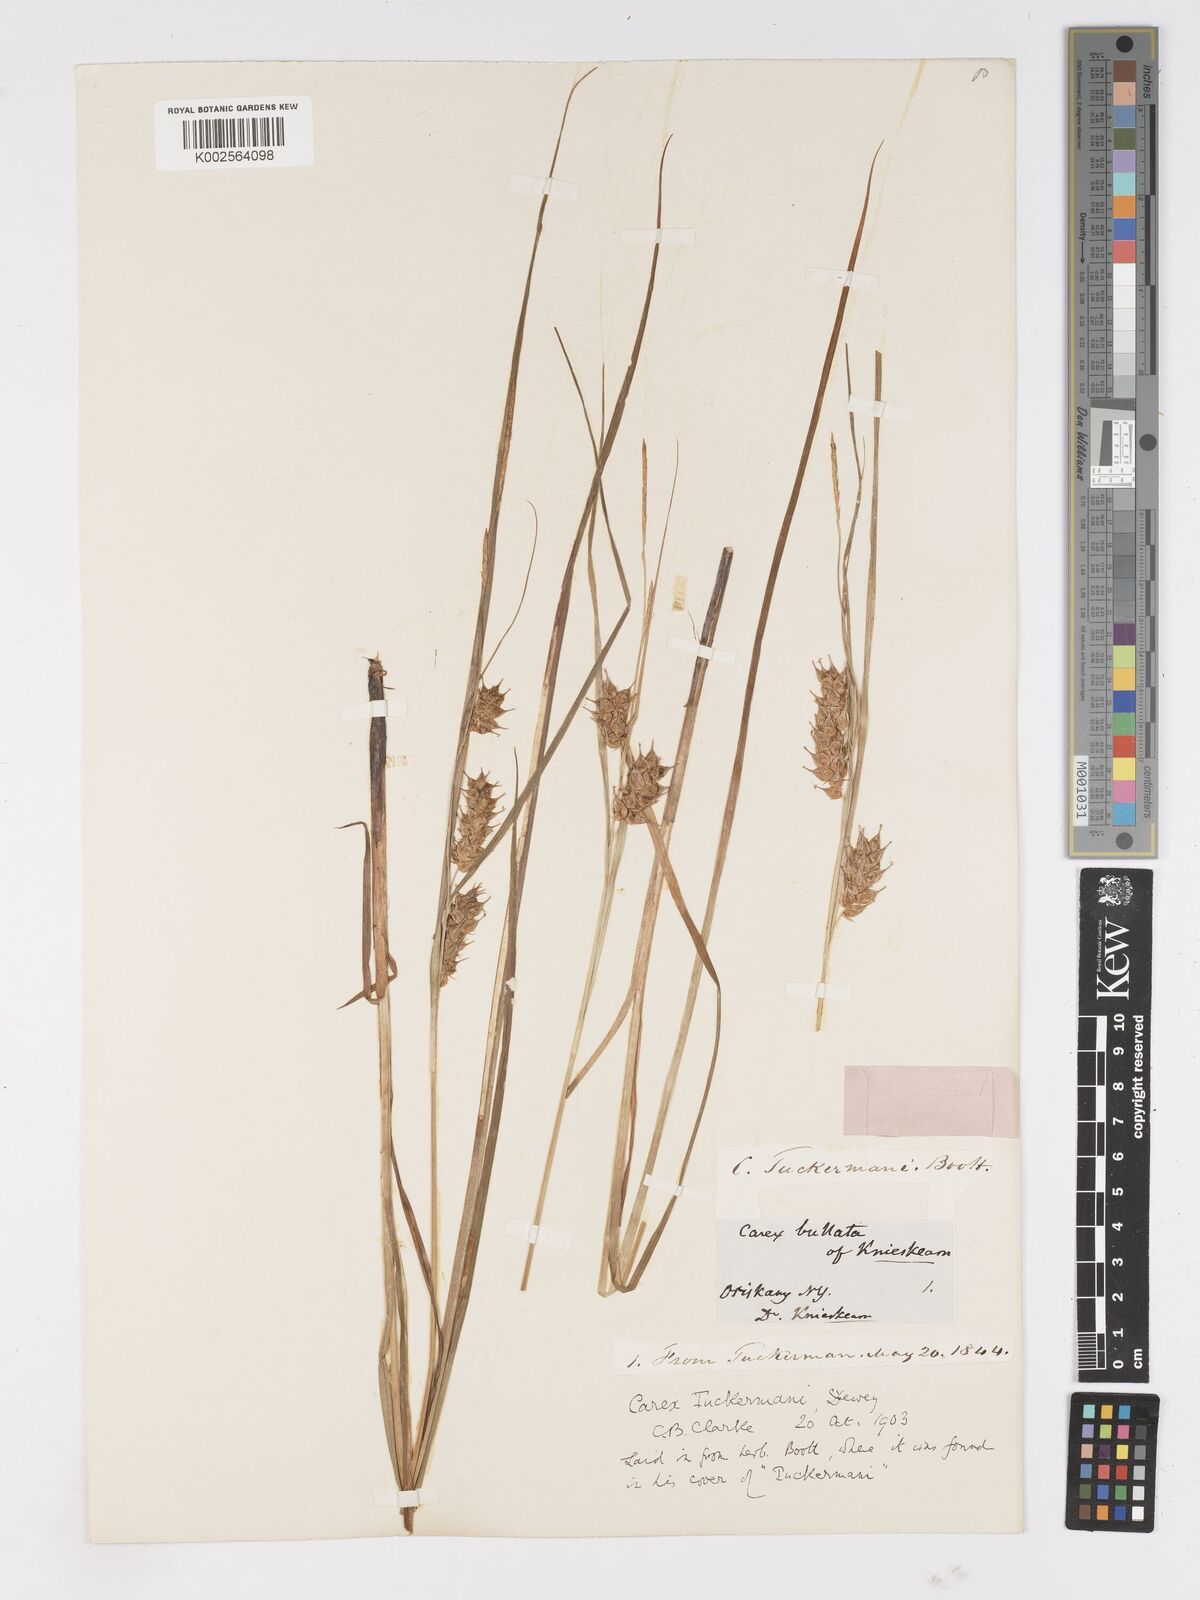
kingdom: Plantae
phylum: Tracheophyta
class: Liliopsida
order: Poales
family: Cyperaceae
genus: Carex
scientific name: Carex tuckermanii
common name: Tuckerman's sedge
